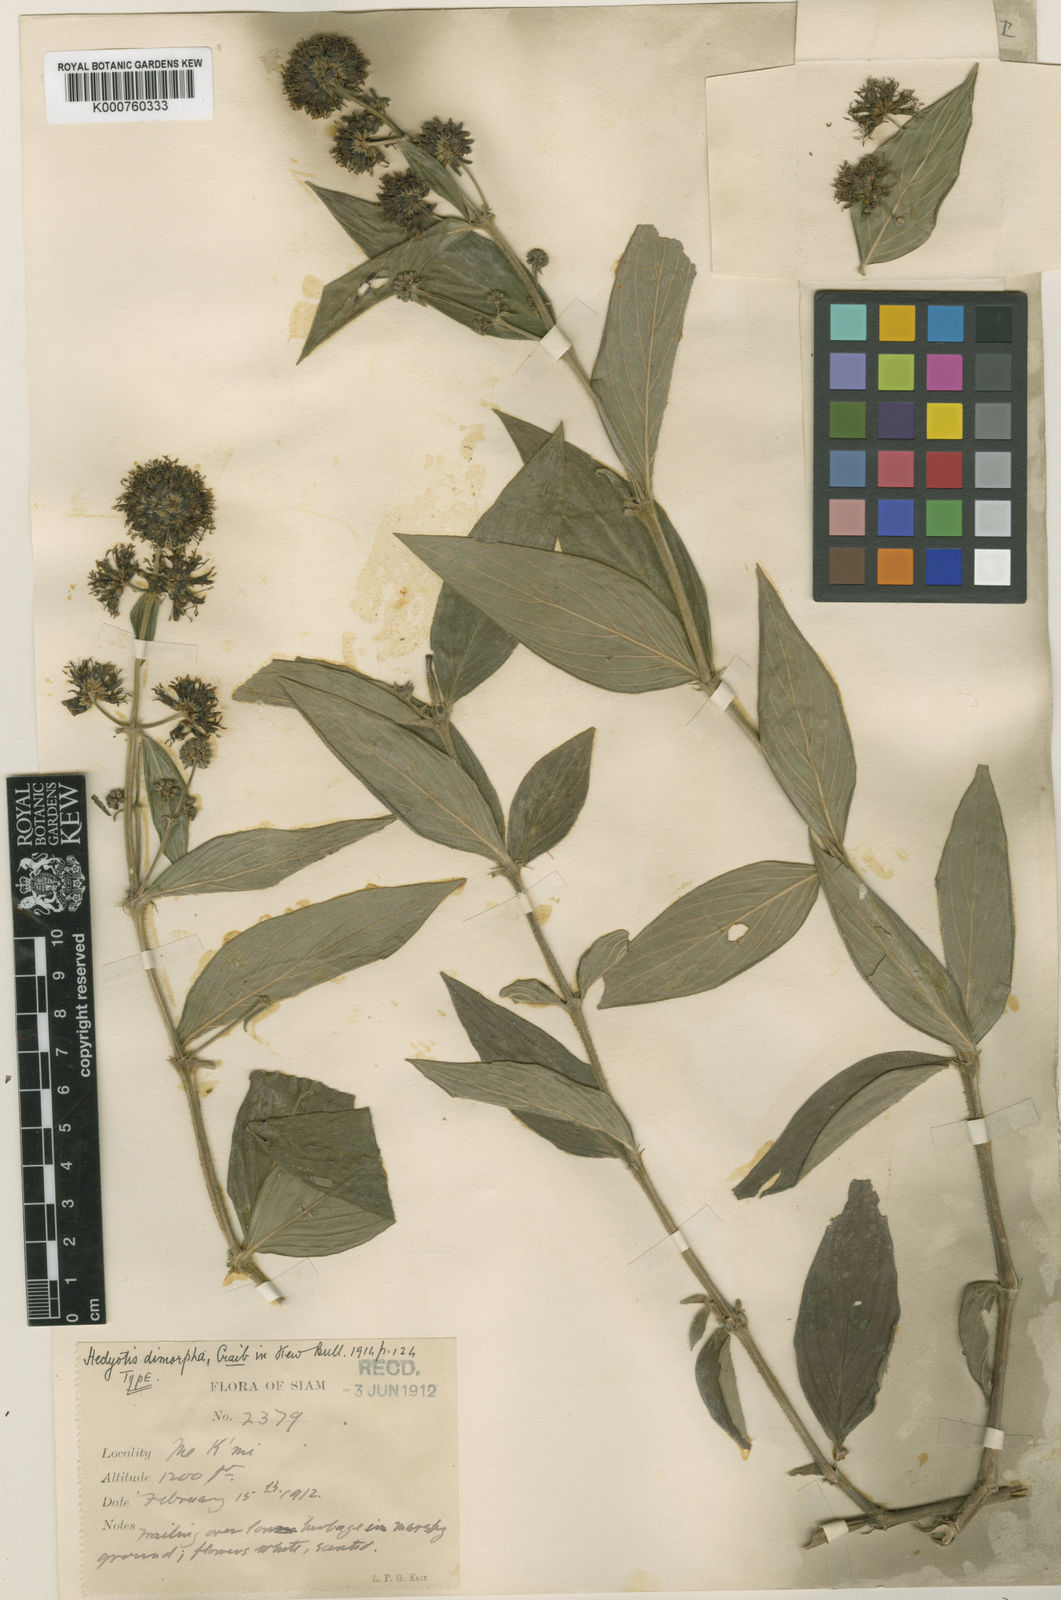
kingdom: Plantae
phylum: Tracheophyta
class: Magnoliopsida
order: Gentianales
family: Rubiaceae
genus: Dimetia
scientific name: Dimetia capitellata
